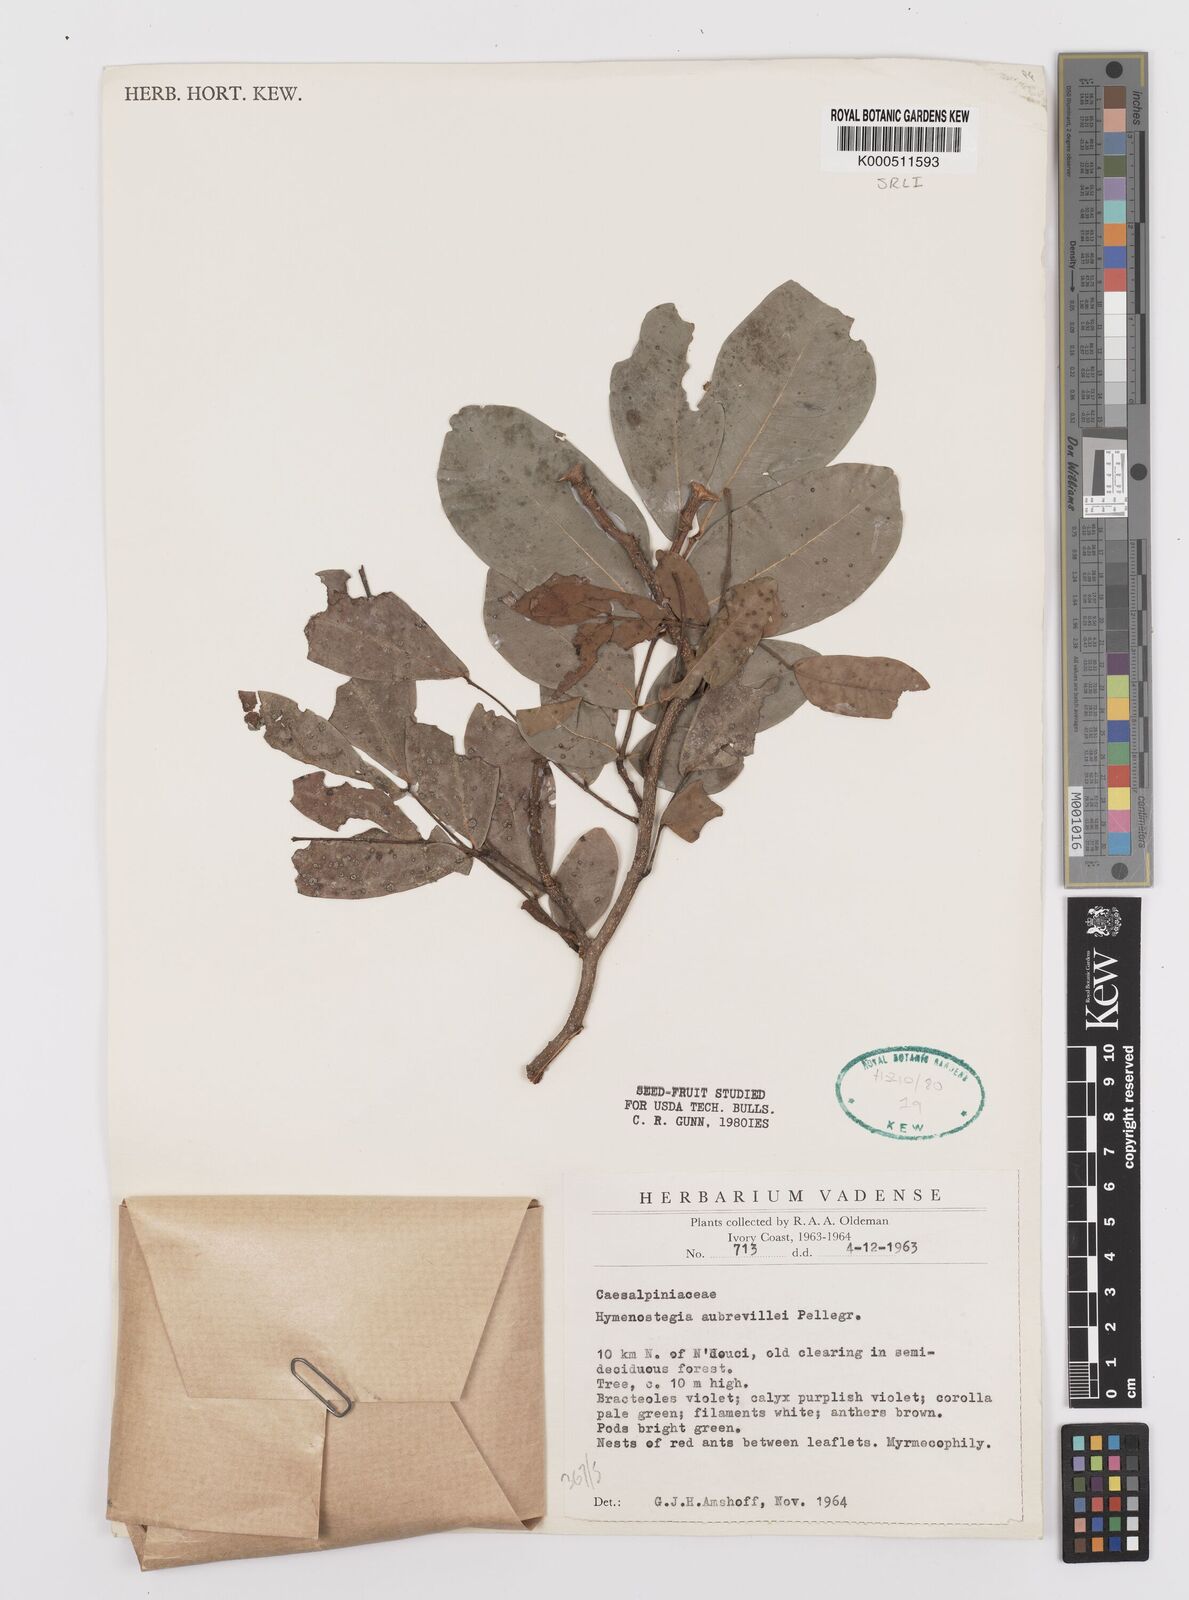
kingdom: Plantae
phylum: Tracheophyta
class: Magnoliopsida
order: Fabales
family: Fabaceae
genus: Hymenostegia
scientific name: Hymenostegia aubrevillei
